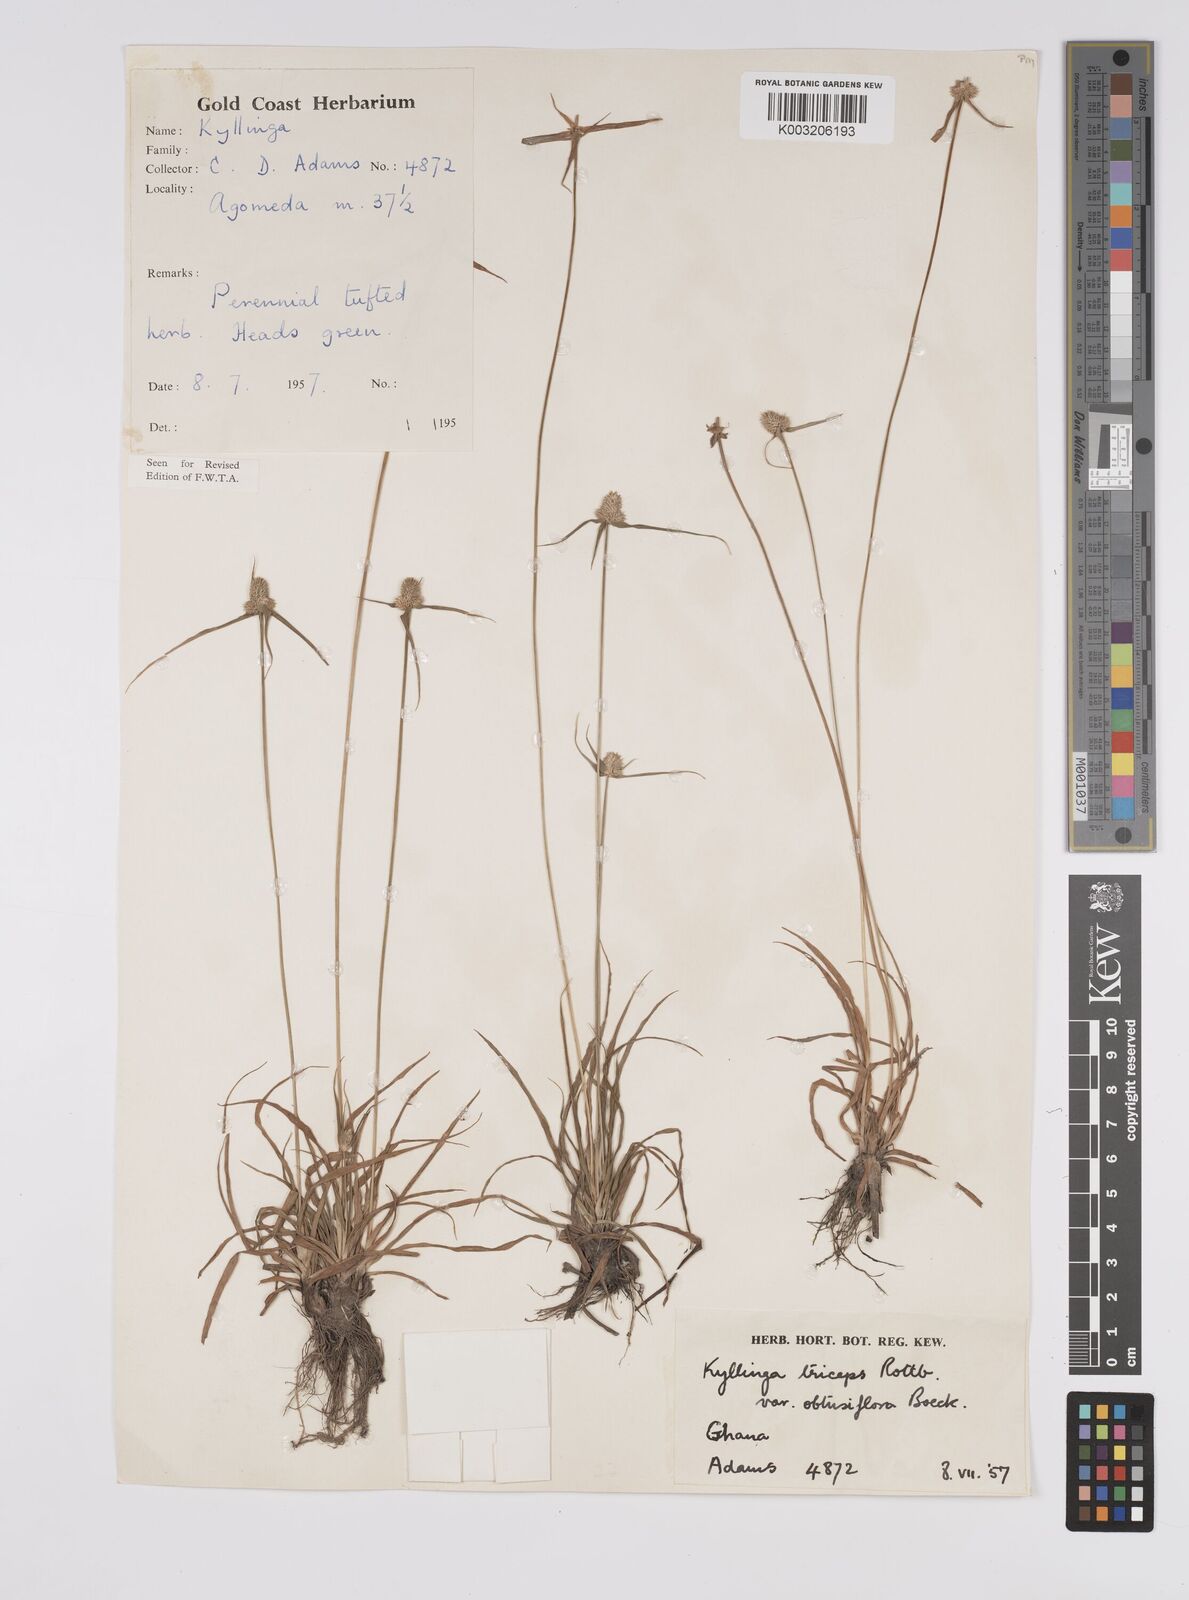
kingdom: Plantae
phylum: Tracheophyta
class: Liliopsida
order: Poales
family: Cyperaceae
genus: Cyperus
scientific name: Cyperus
